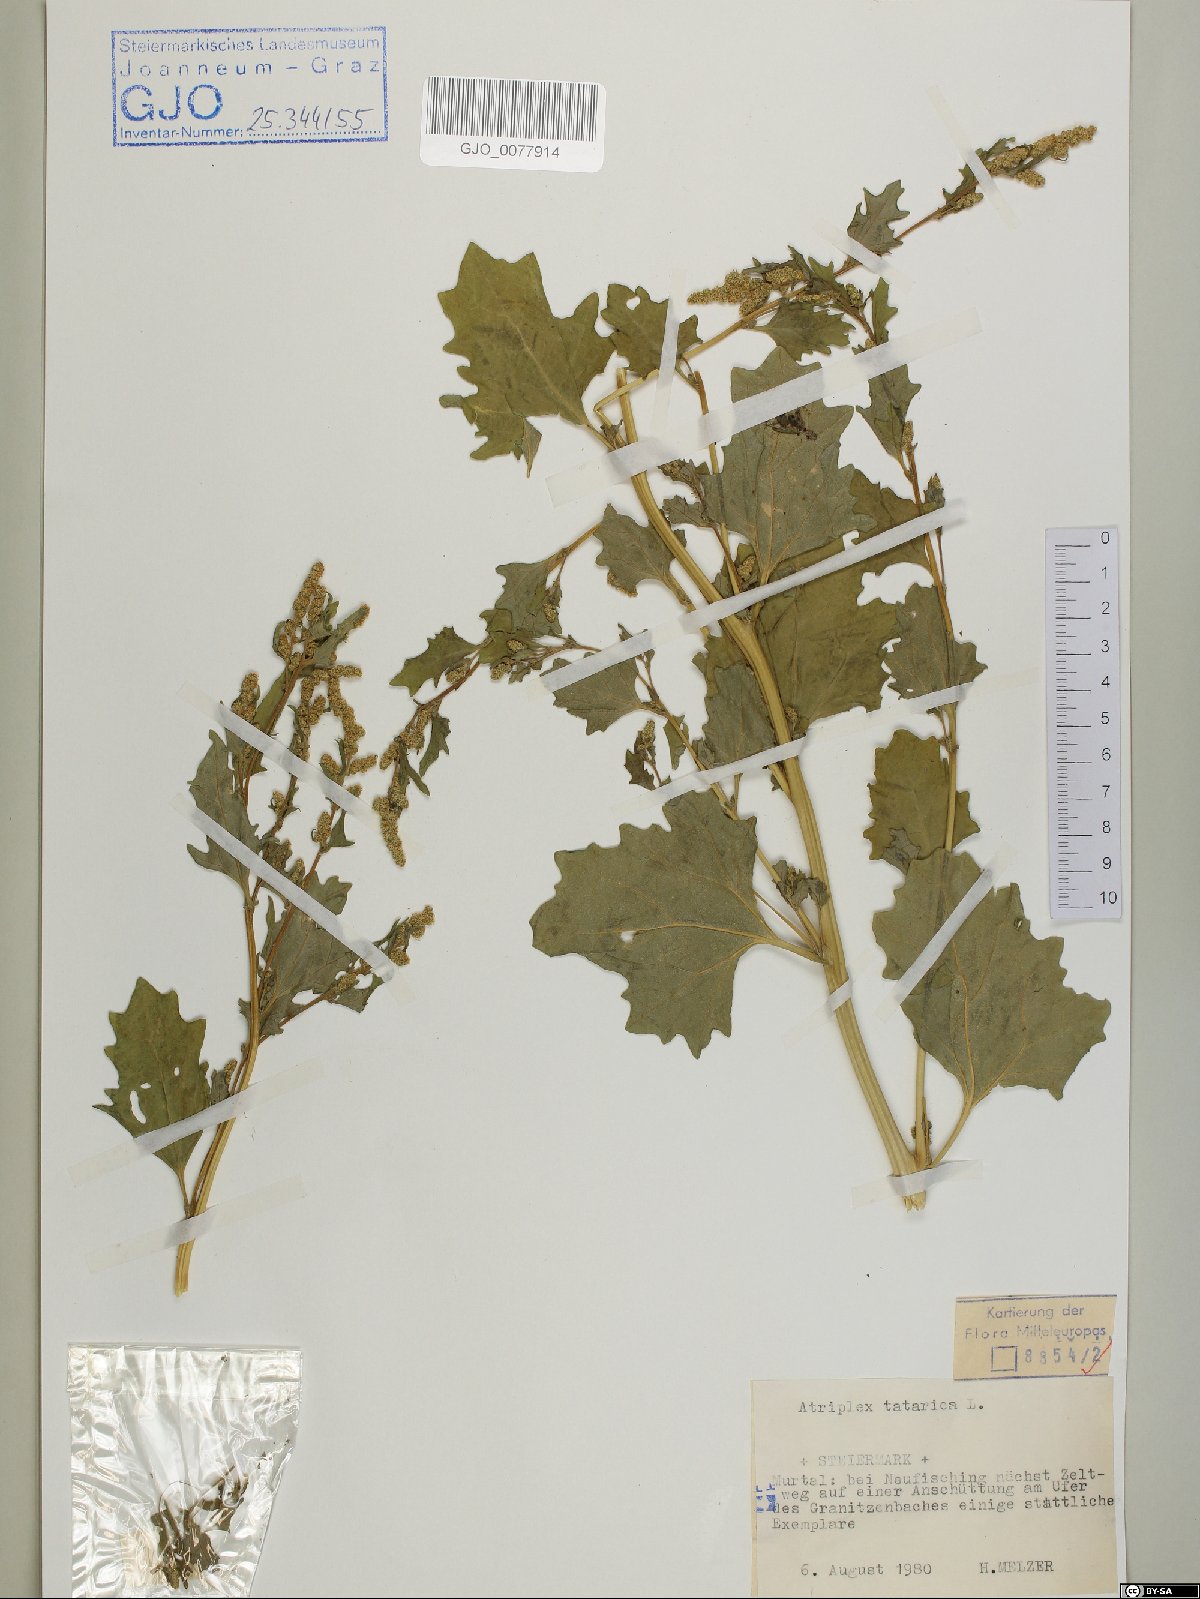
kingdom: Plantae
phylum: Tracheophyta
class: Magnoliopsida
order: Caryophyllales
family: Amaranthaceae
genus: Atriplex
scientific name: Atriplex tatarica
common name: Tatarian orache
